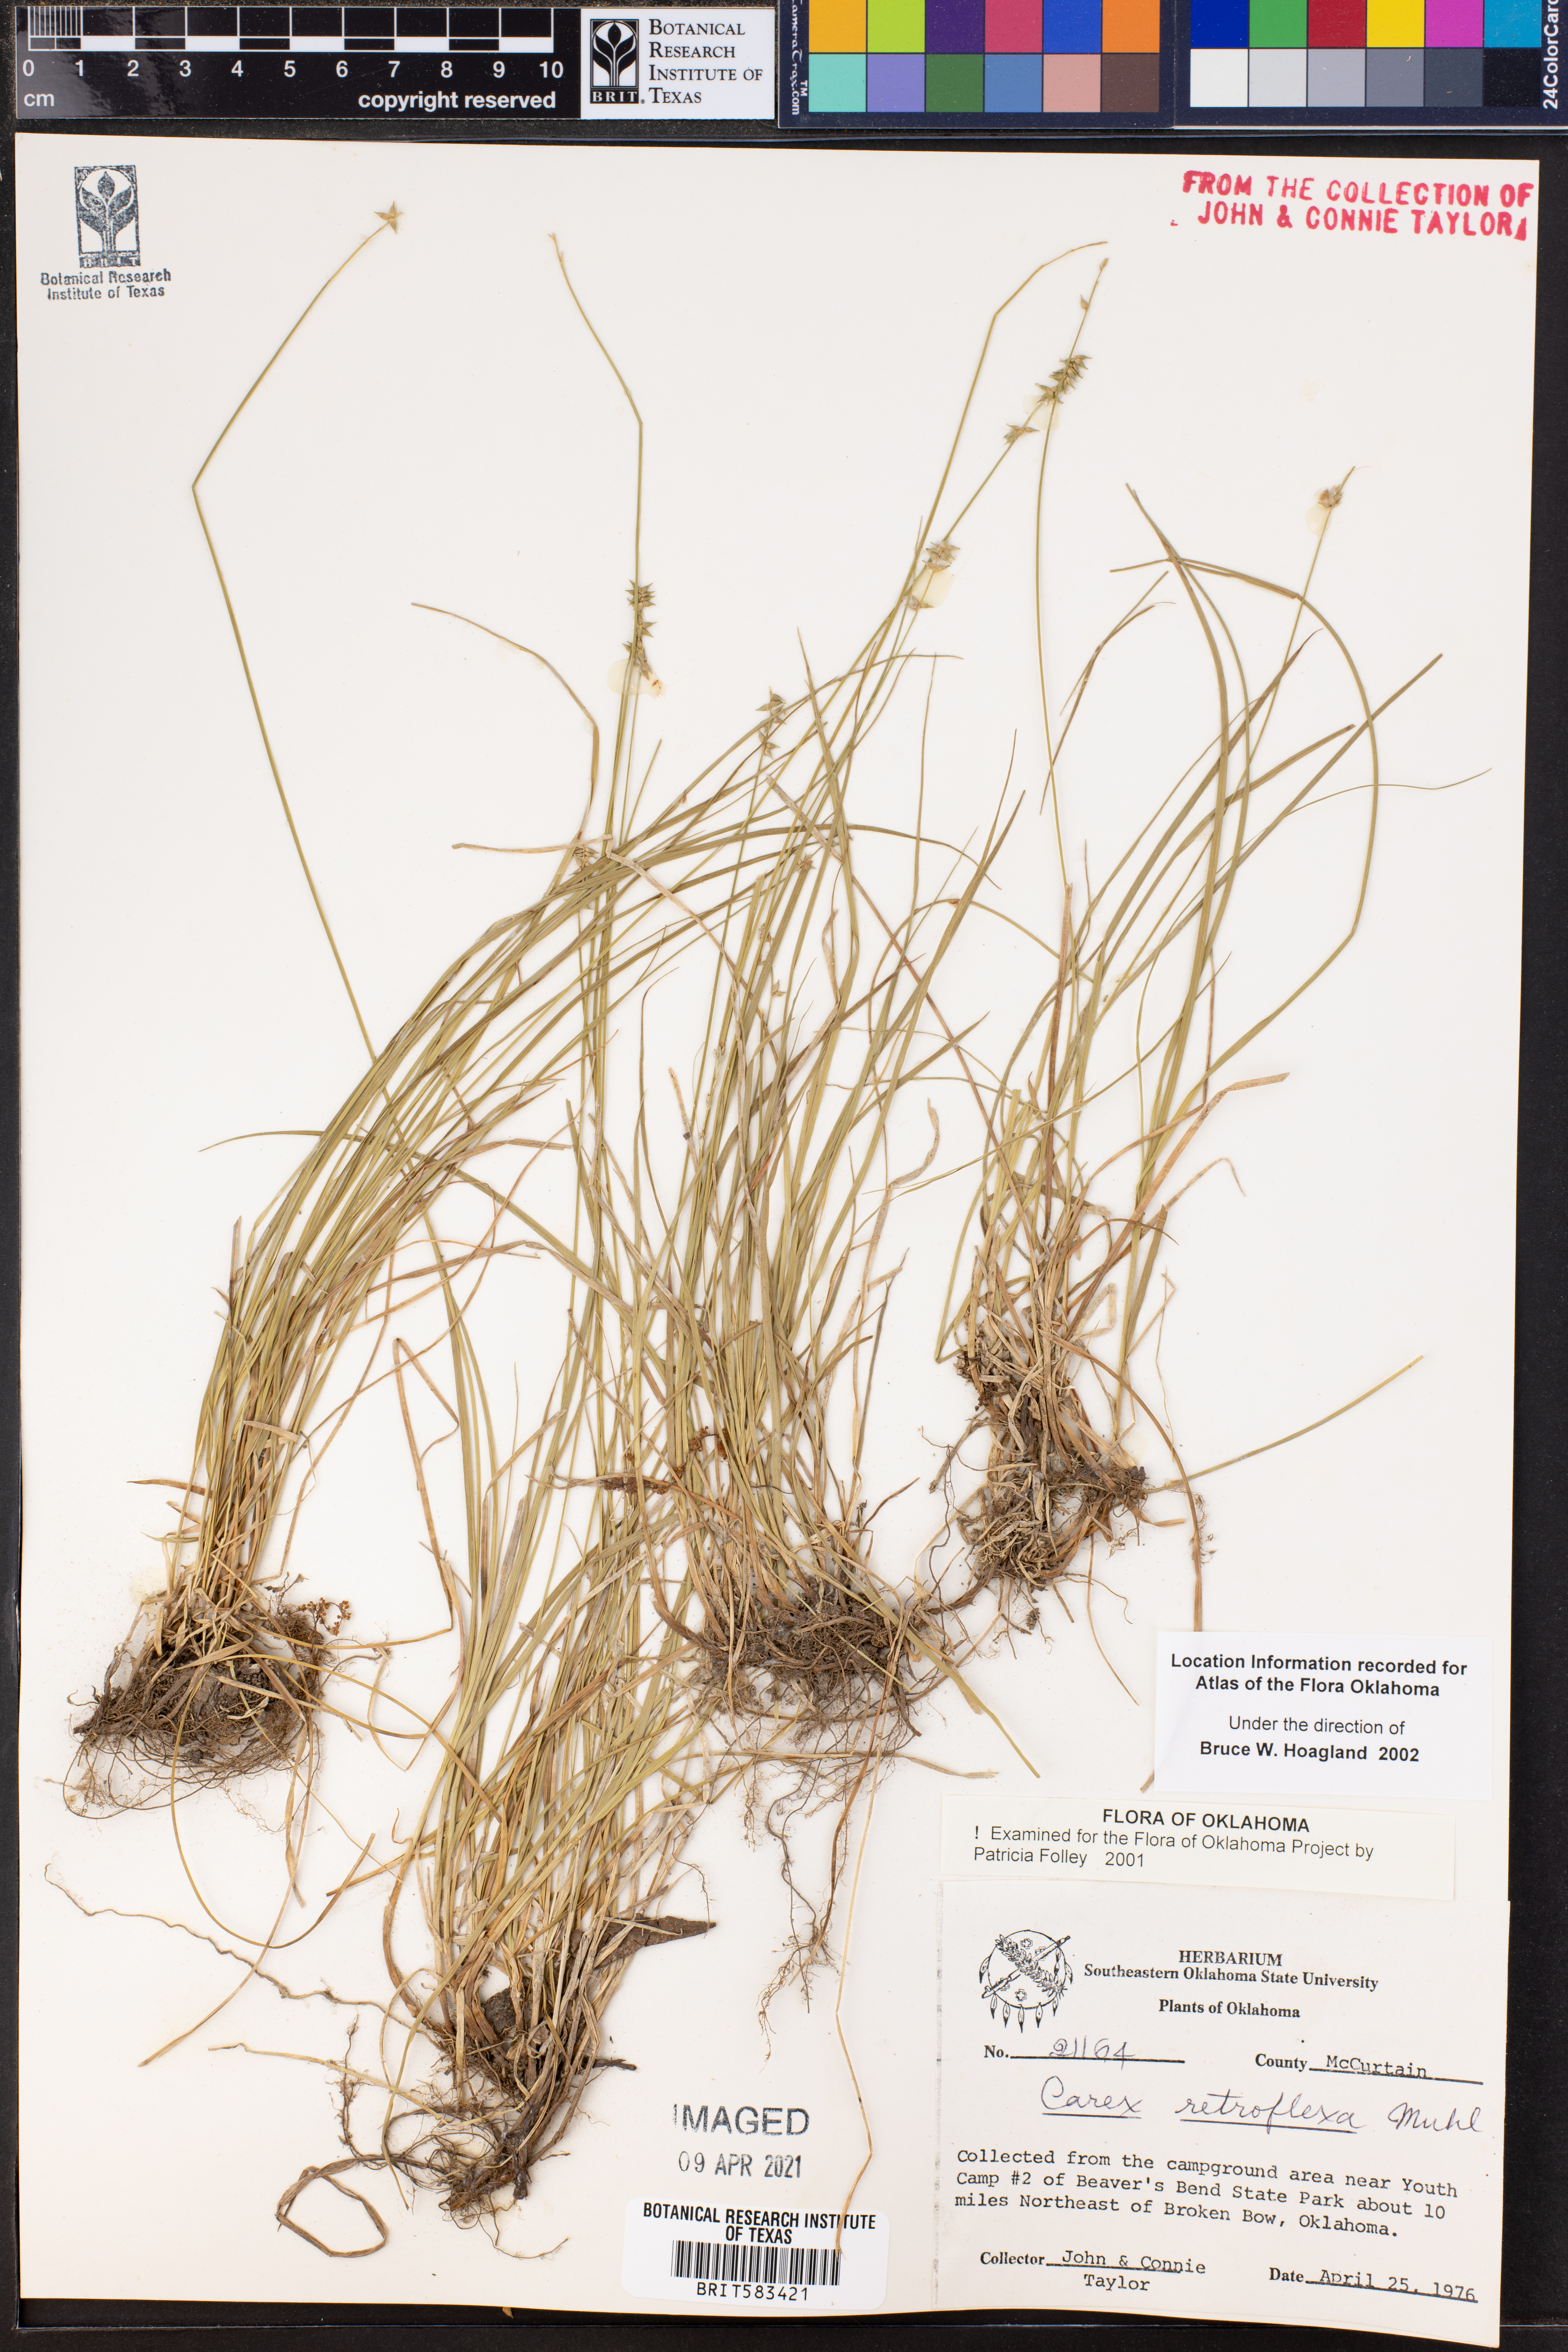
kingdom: Plantae
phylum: Tracheophyta
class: Liliopsida
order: Poales
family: Cyperaceae
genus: Carex
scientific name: Carex retroflexa
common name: Reflexed sedge
